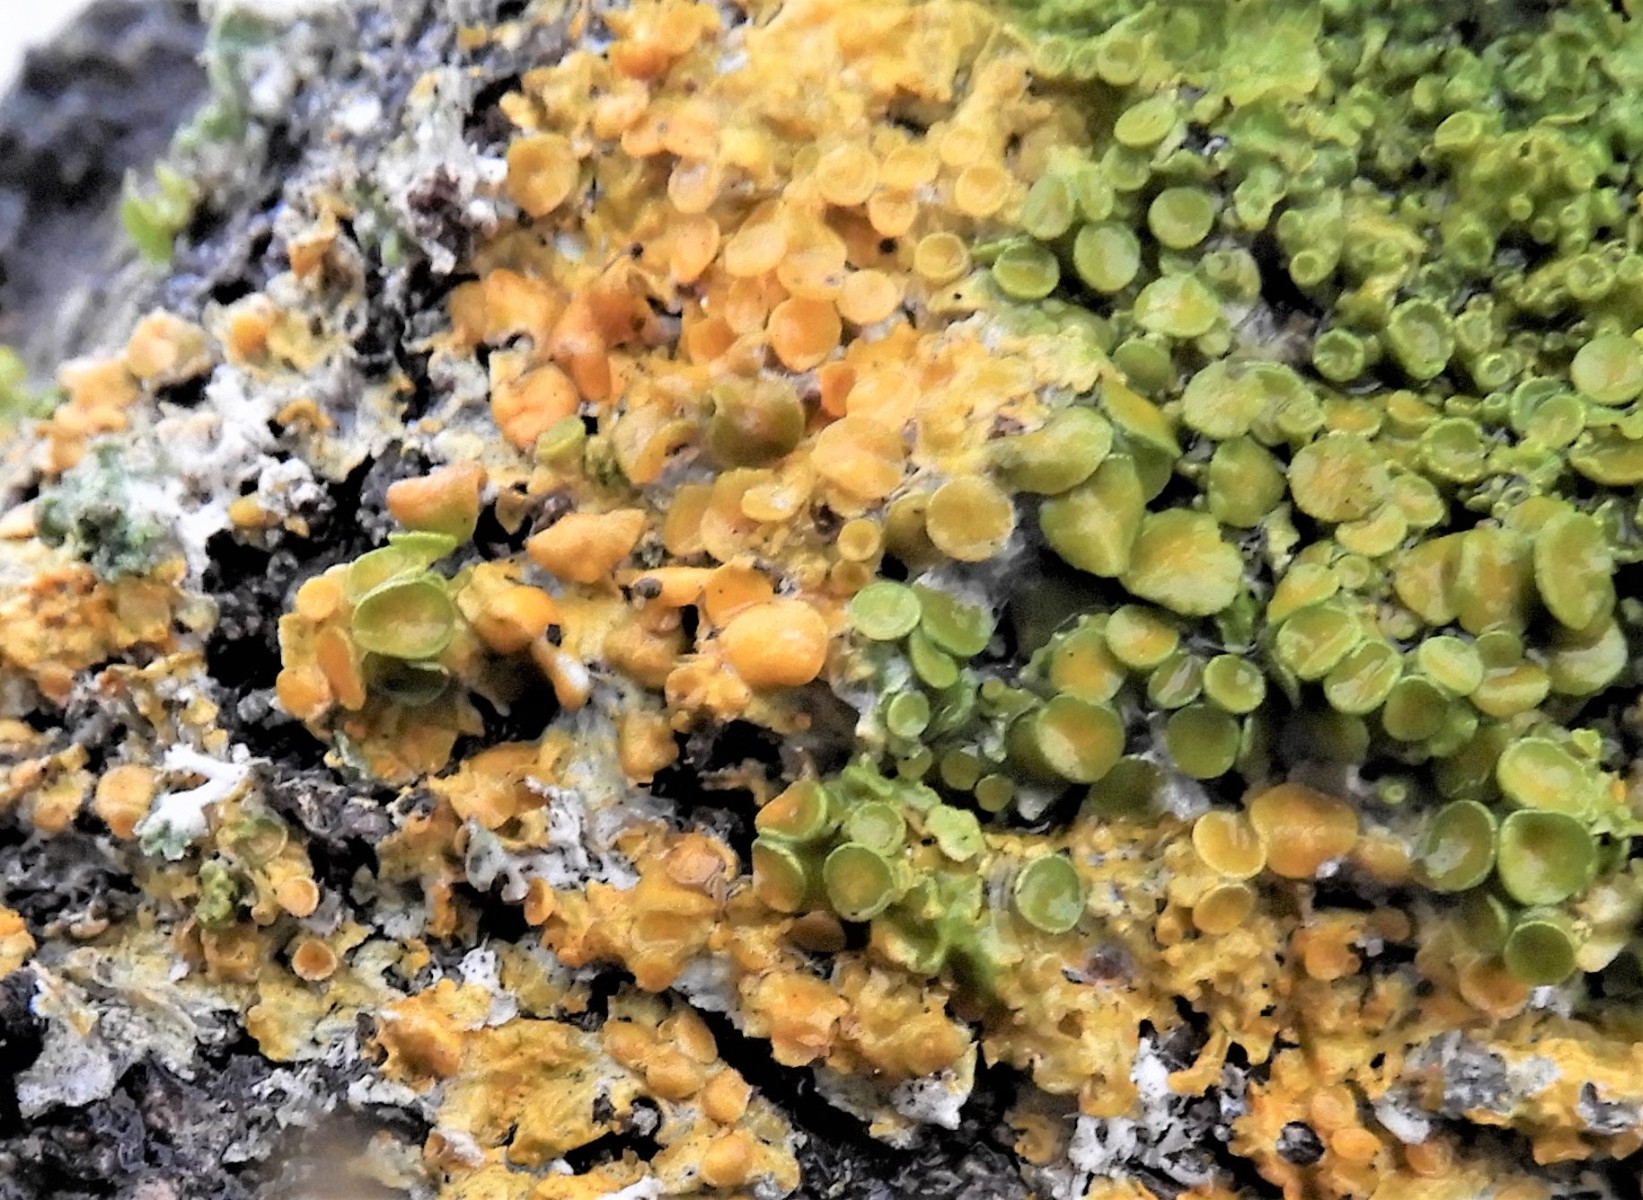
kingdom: Fungi
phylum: Ascomycota
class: Dothideomycetes
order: Mycosphaerellales
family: Teratosphaeriaceae
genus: Xanthoriicola
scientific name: Xanthoriicola physciae
